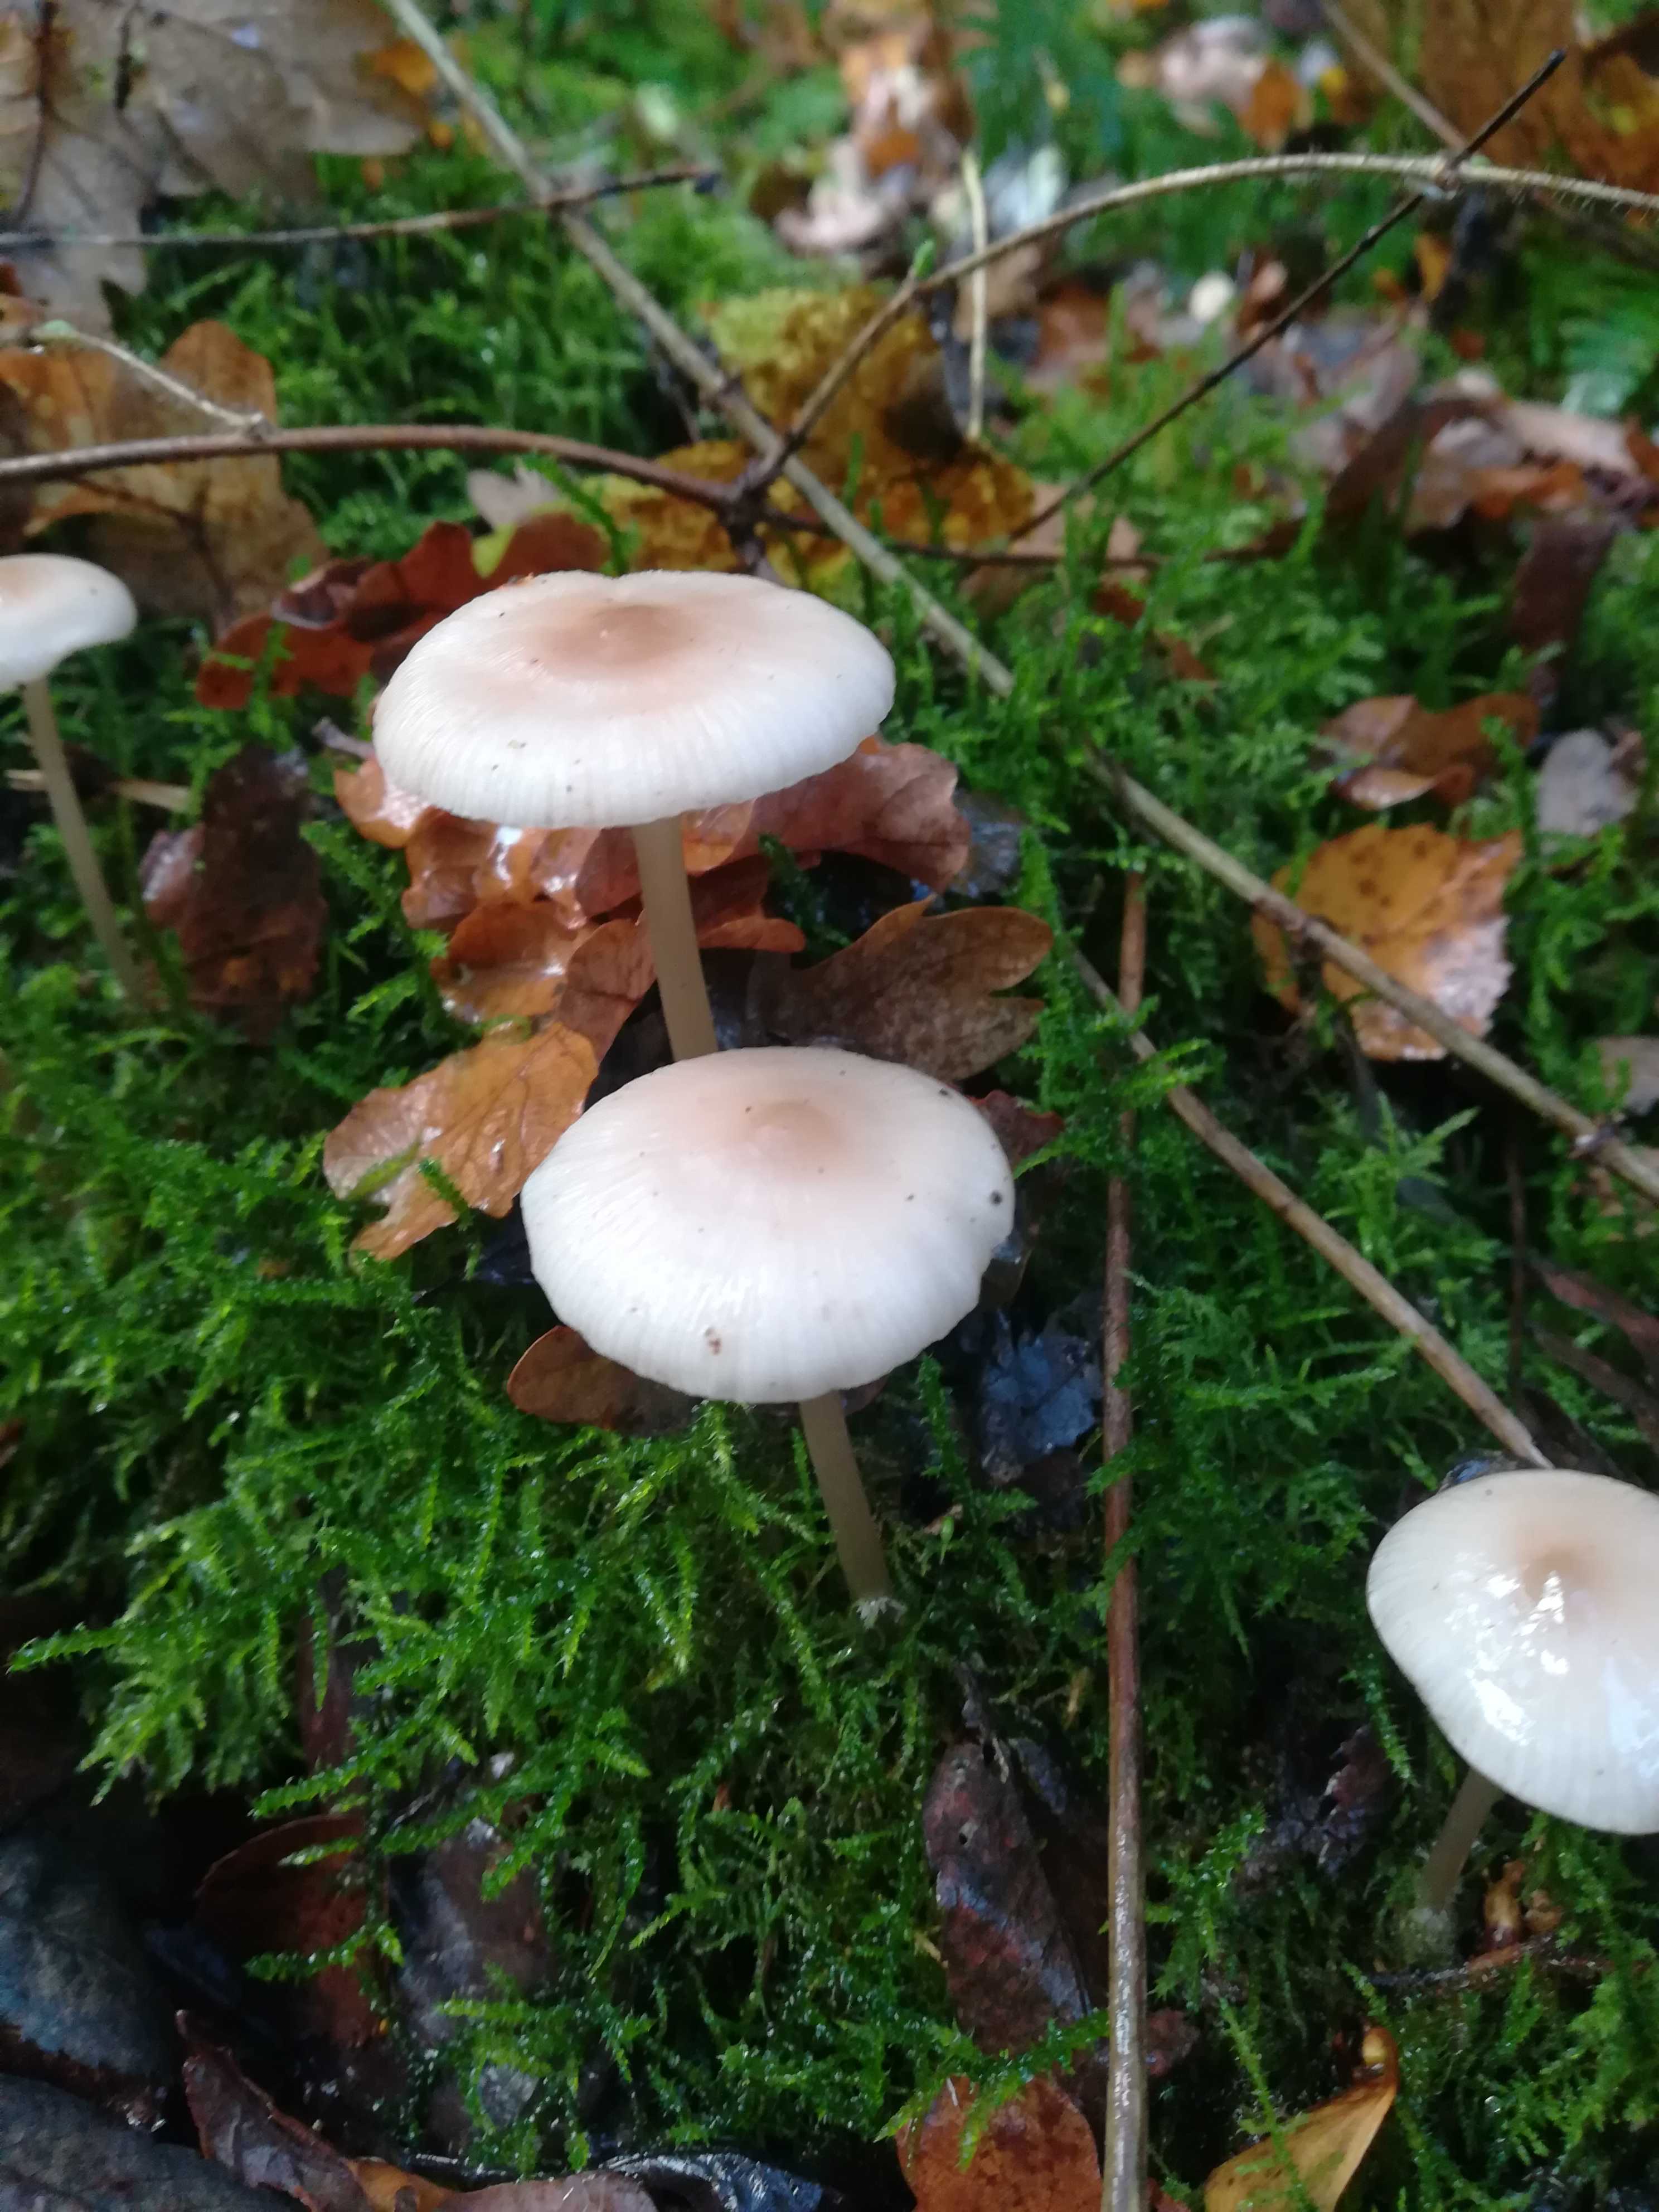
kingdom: Fungi
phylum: Basidiomycota
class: Agaricomycetes
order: Agaricales
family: Mycenaceae
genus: Mycena
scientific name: Mycena galericulata
